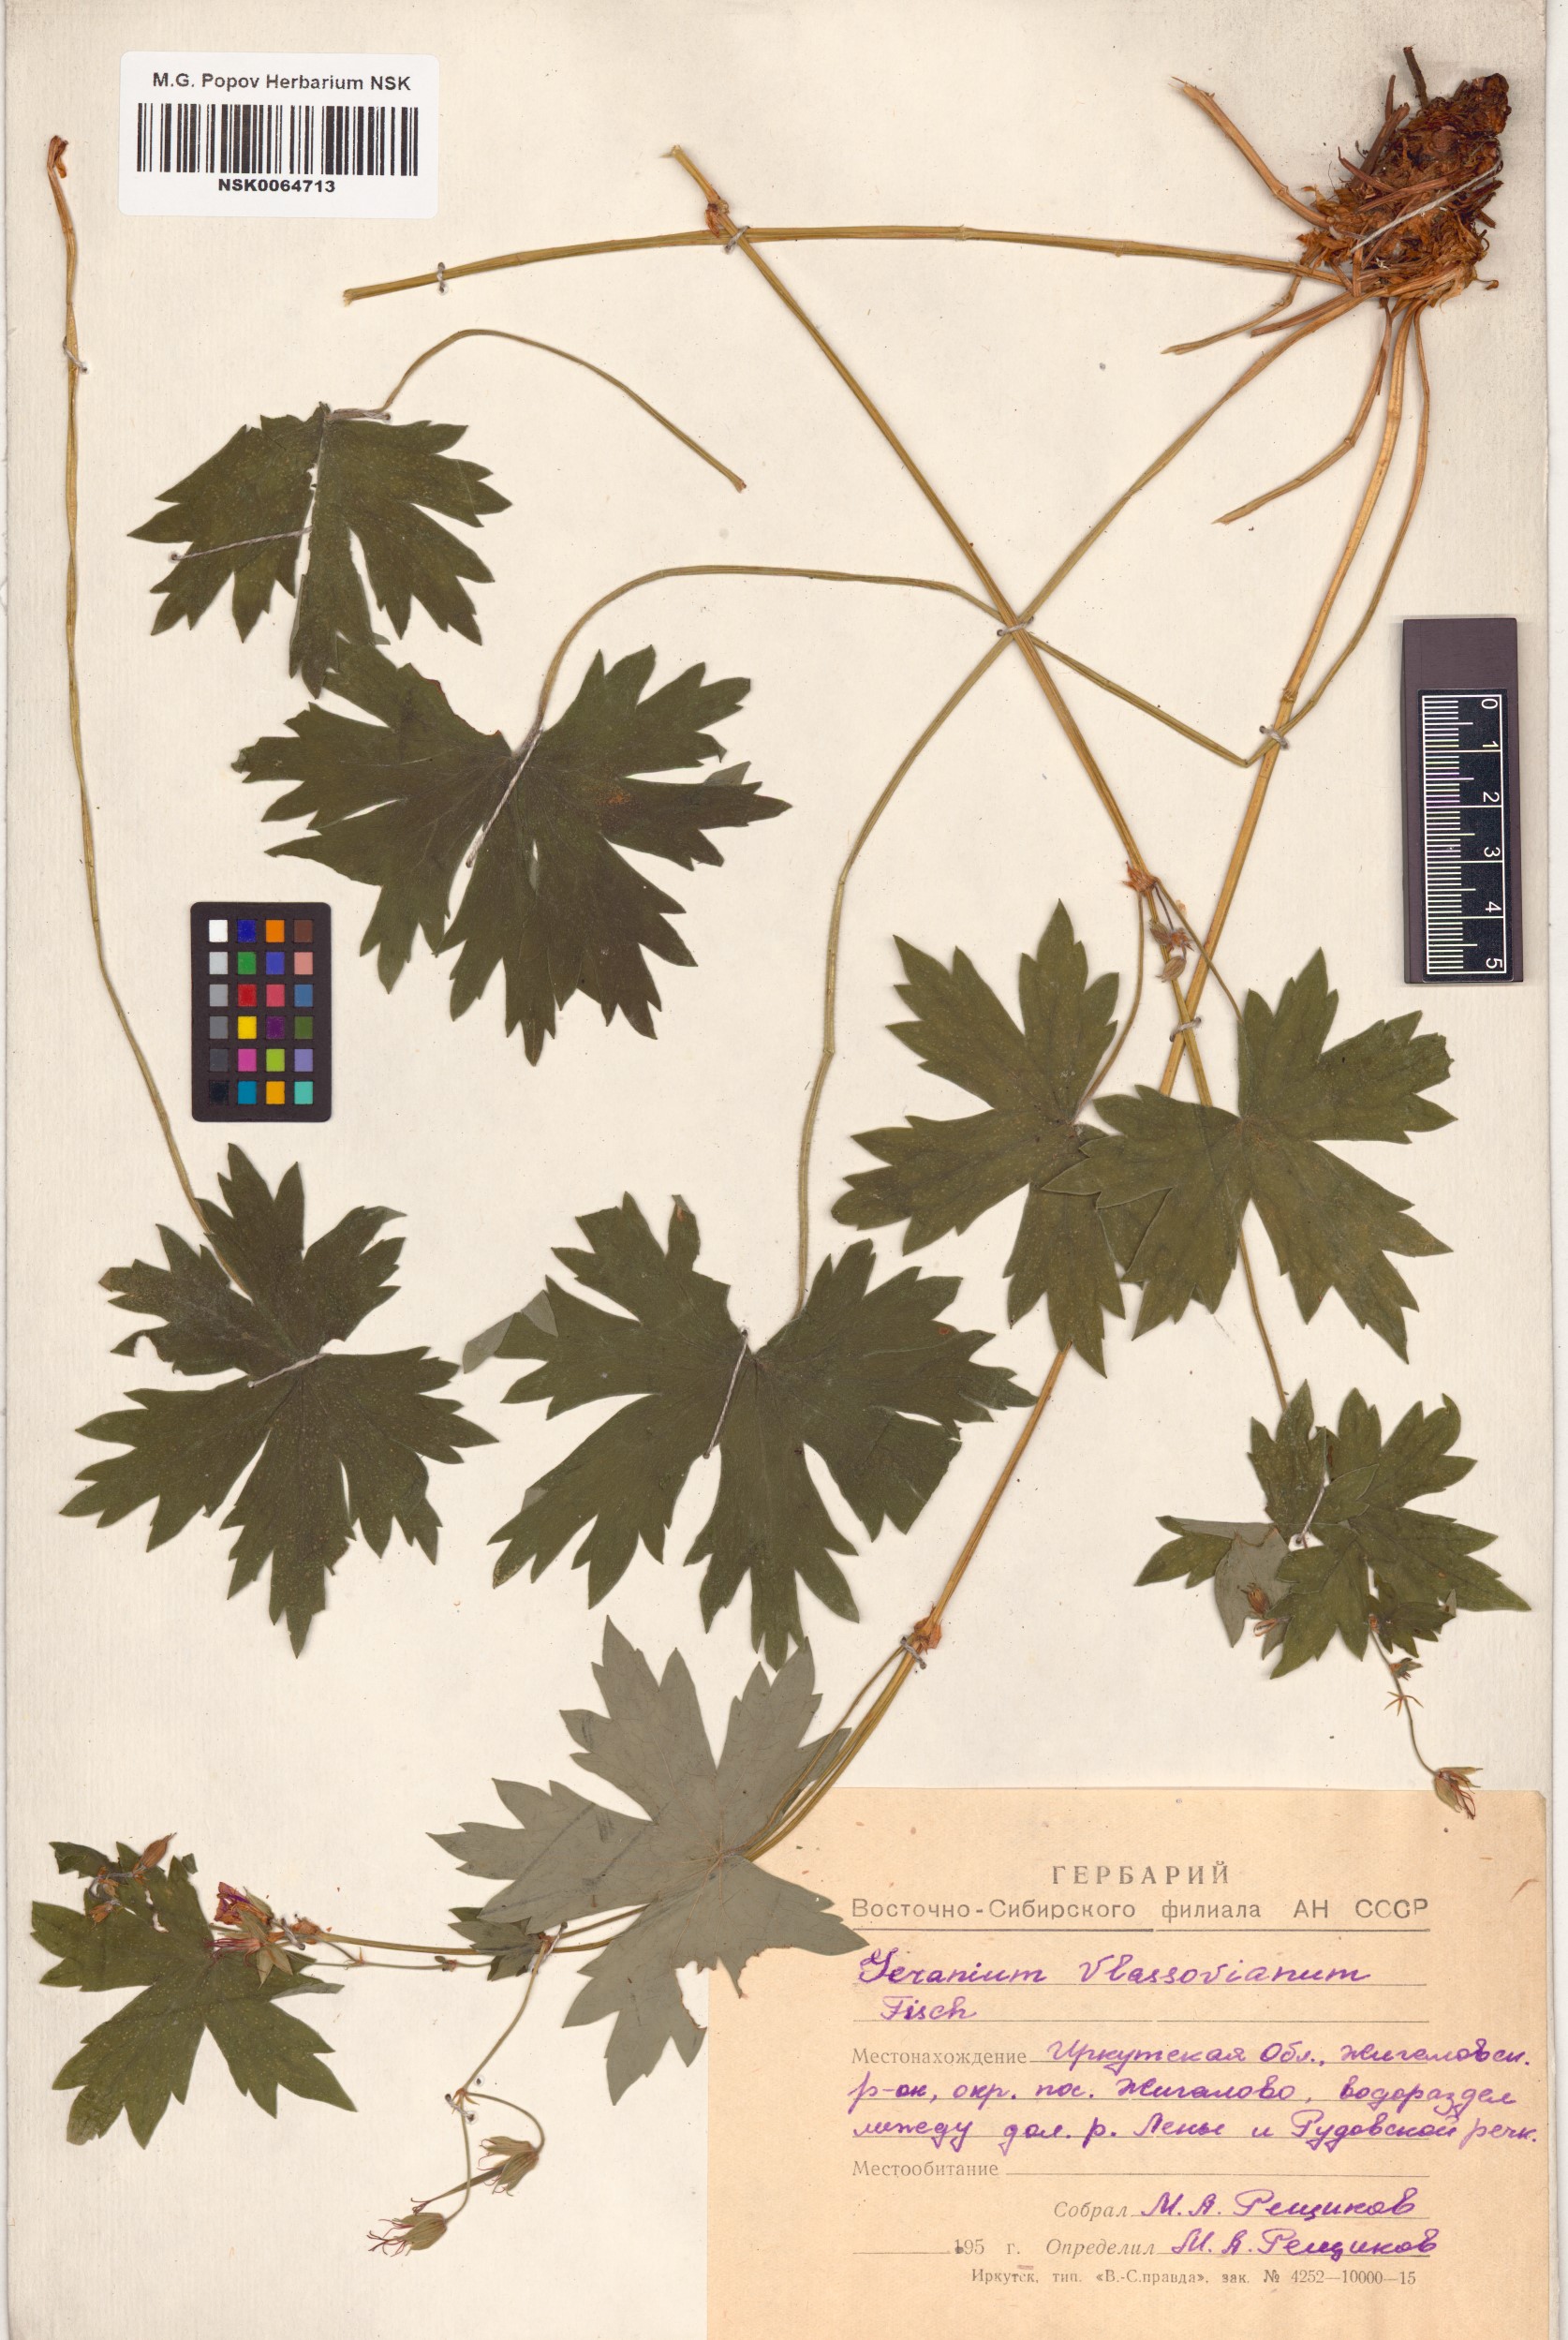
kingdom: Plantae
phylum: Tracheophyta
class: Magnoliopsida
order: Geraniales
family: Geraniaceae
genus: Geranium
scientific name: Geranium wlassovianum
